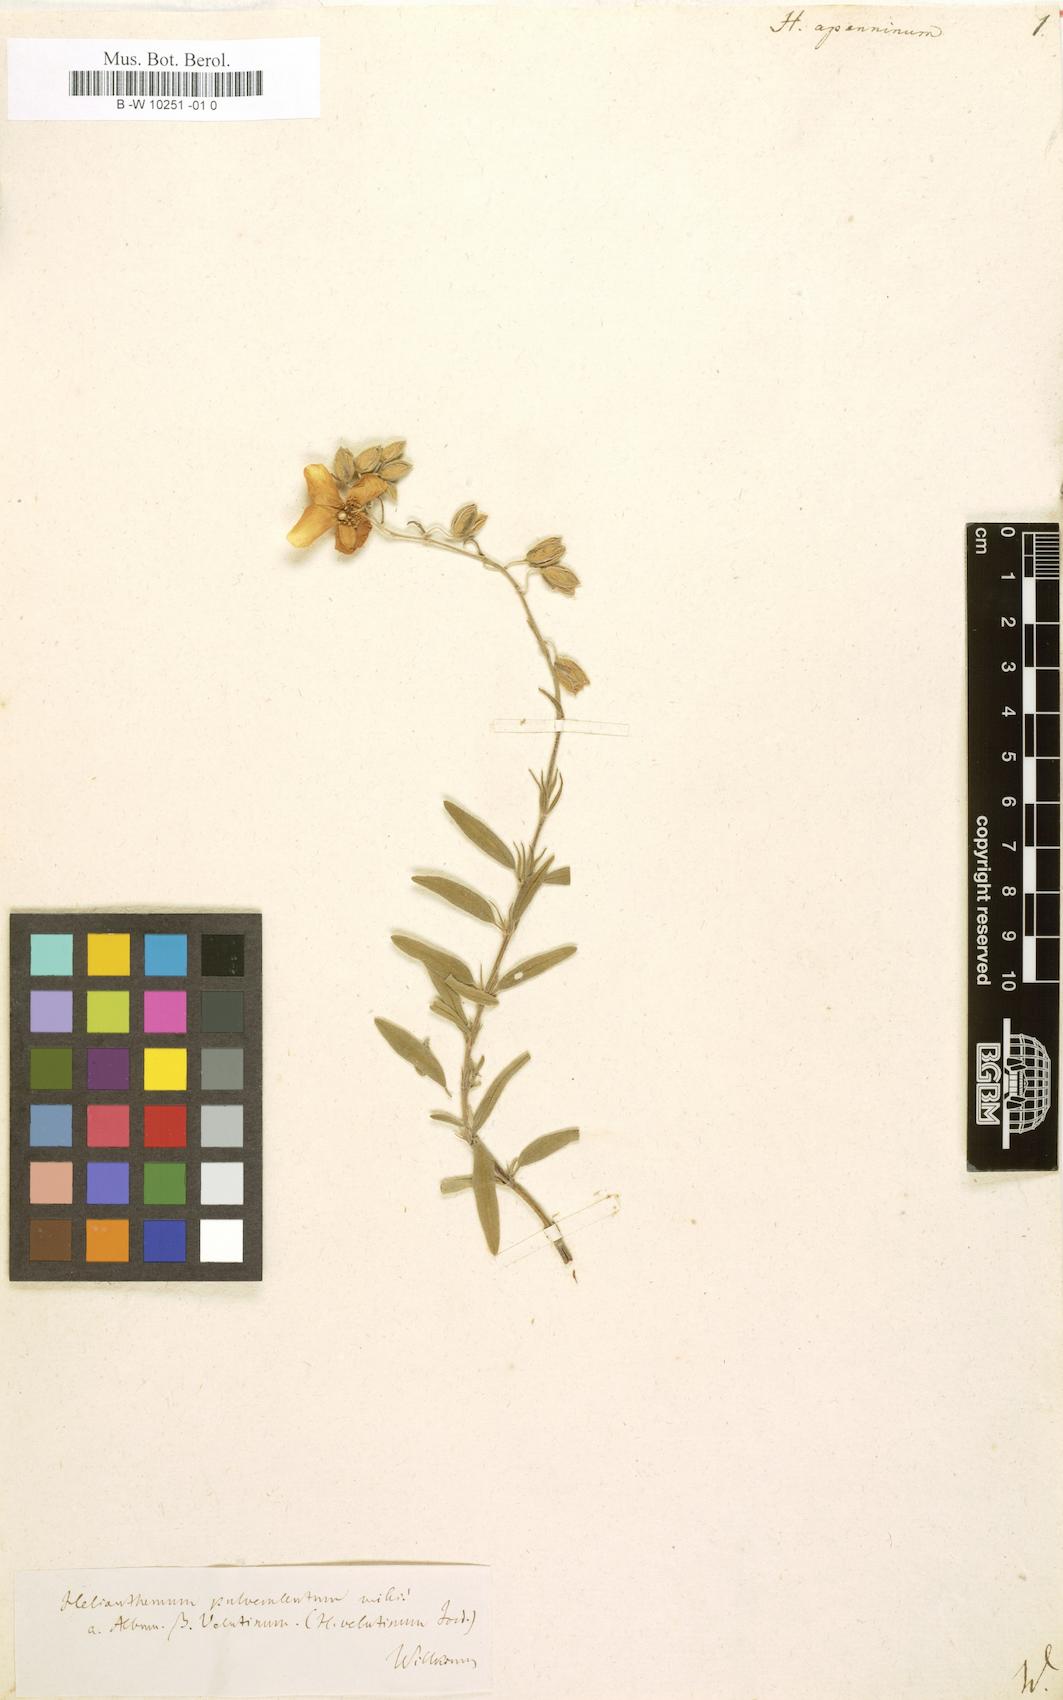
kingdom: Plantae
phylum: Tracheophyta
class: Magnoliopsida
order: Malvales
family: Cistaceae
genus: Helianthemum
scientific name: Helianthemum apenninum
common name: White rock-rose
